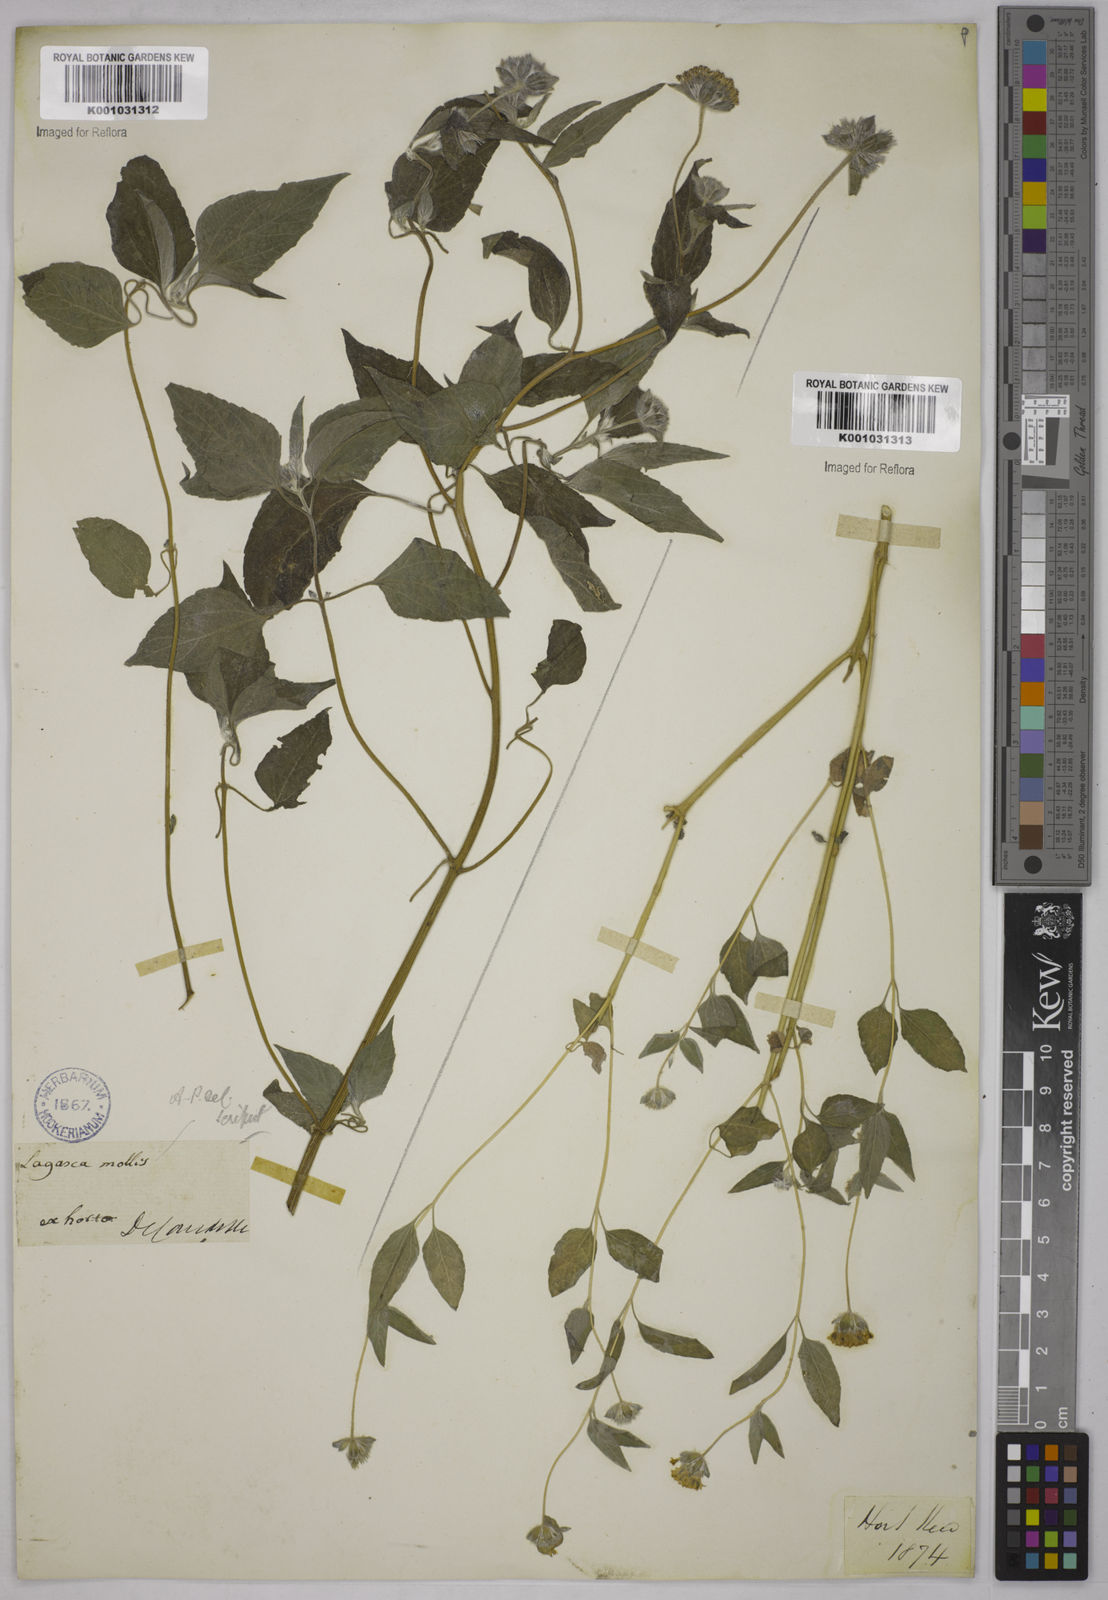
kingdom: Plantae
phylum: Tracheophyta
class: Magnoliopsida
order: Asterales
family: Asteraceae
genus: Lagascea
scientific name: Lagascea mollis
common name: Silkleaf
